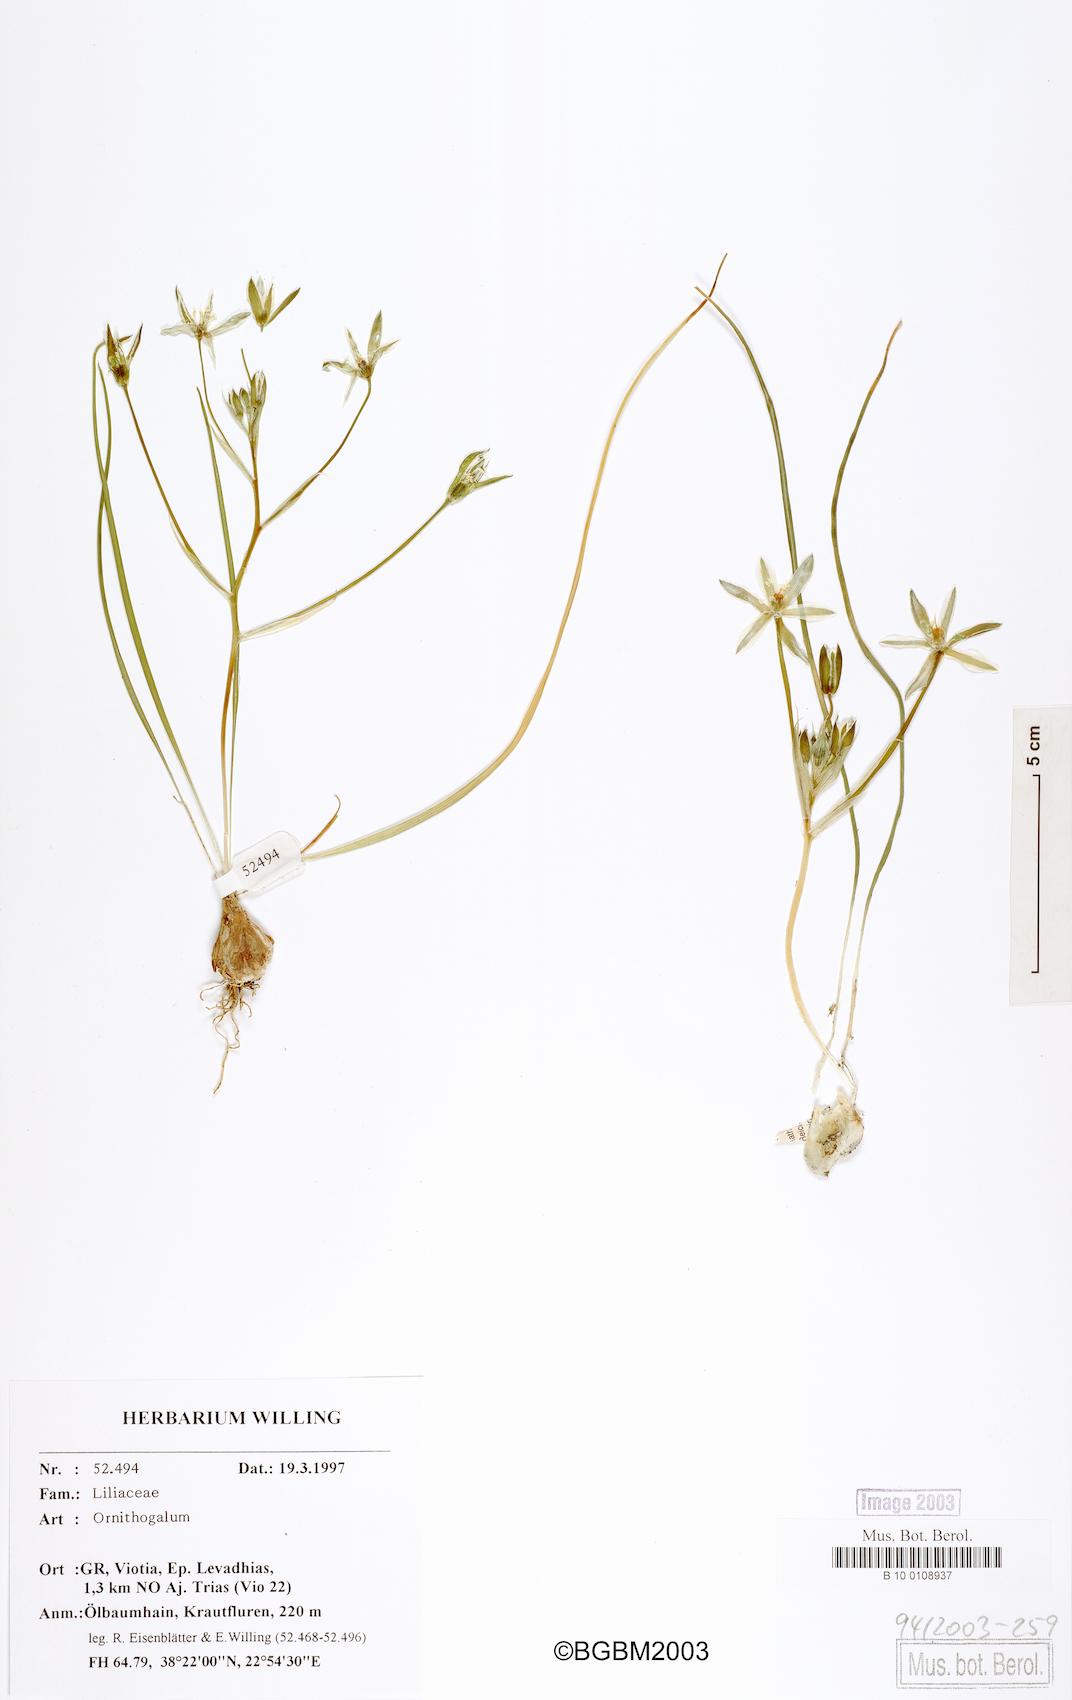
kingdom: Plantae
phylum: Tracheophyta
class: Liliopsida
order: Asparagales
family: Asparagaceae
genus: Ornithogalum
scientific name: Ornithogalum
